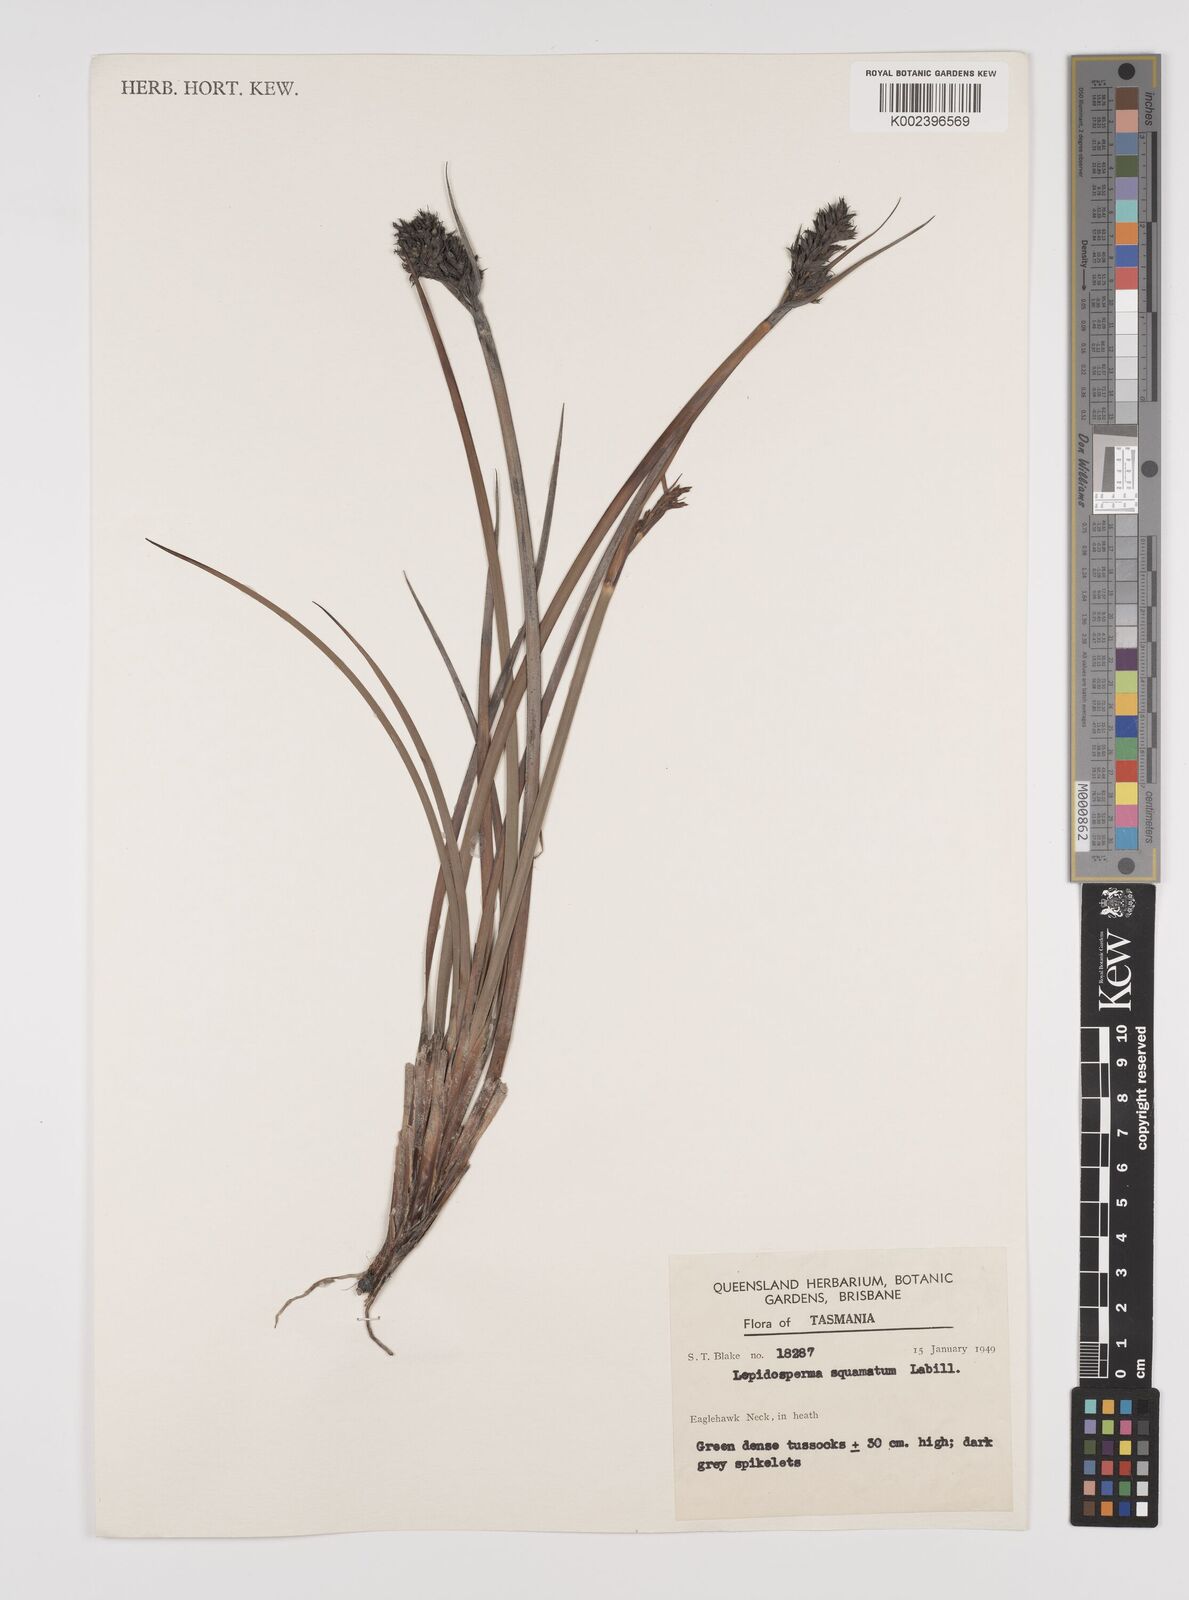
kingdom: Plantae
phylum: Tracheophyta
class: Liliopsida
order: Poales
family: Cyperaceae
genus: Lepidosperma
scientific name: Lepidosperma concavum
